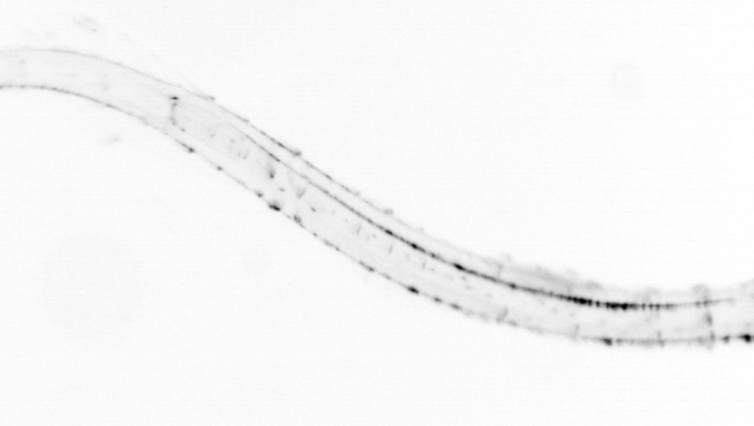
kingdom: Animalia
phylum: Chordata
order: Copelata
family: Fritillariidae
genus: Appendicularia
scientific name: Appendicularia
